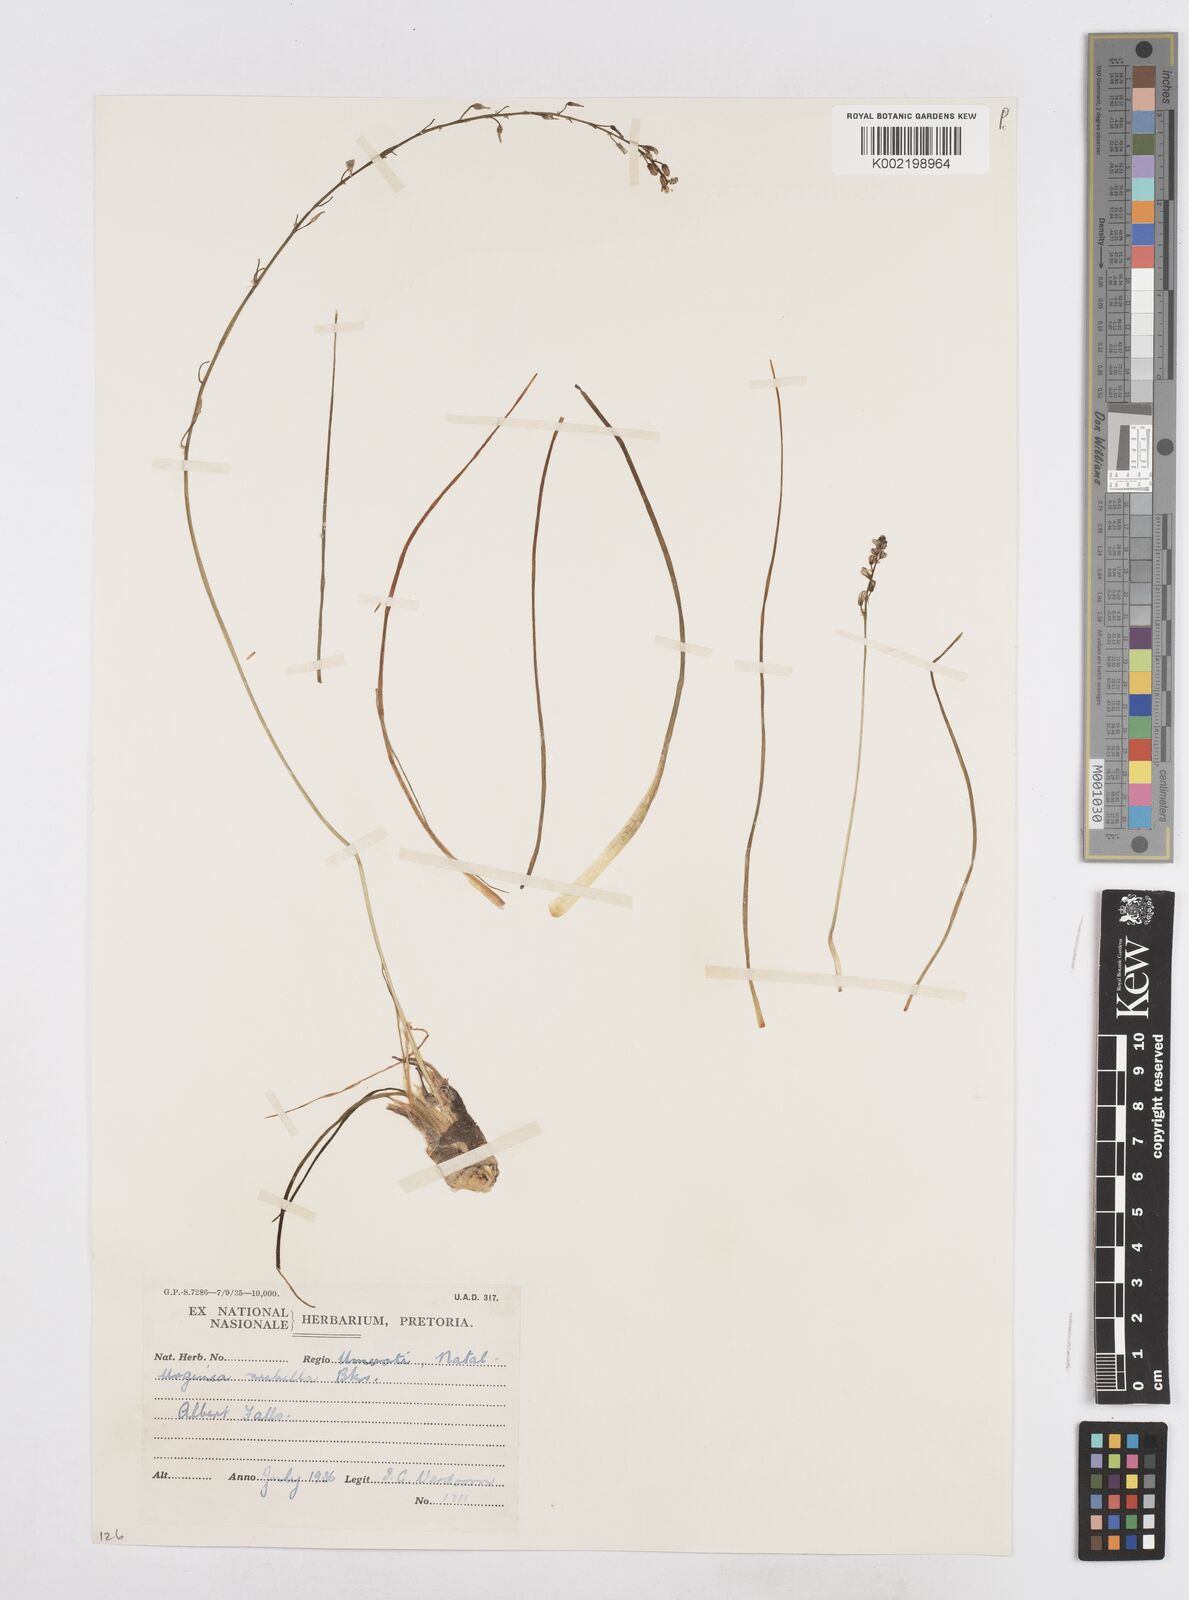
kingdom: Plantae
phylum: Tracheophyta
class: Liliopsida
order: Asparagales
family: Asparagaceae
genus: Drimia
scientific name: Drimia
